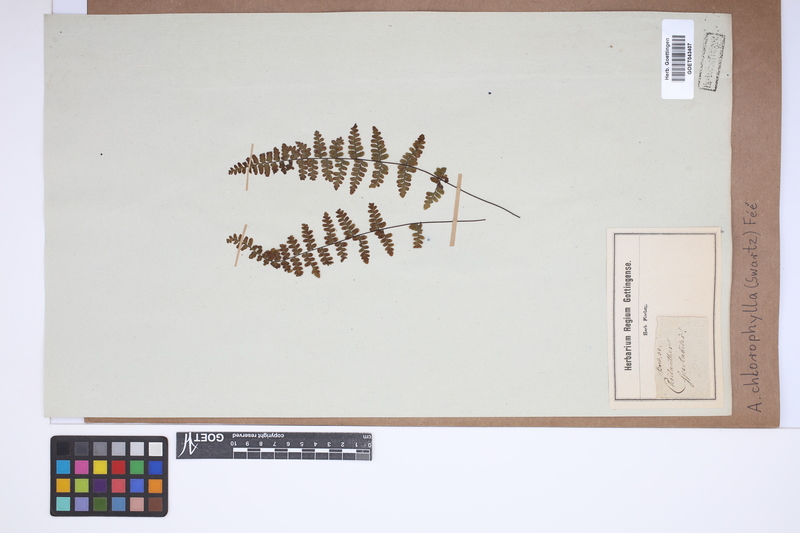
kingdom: Plantae
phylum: Tracheophyta
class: Polypodiopsida
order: Polypodiales
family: Pteridaceae
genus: Adiantopsis
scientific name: Adiantopsis chlorophylla
